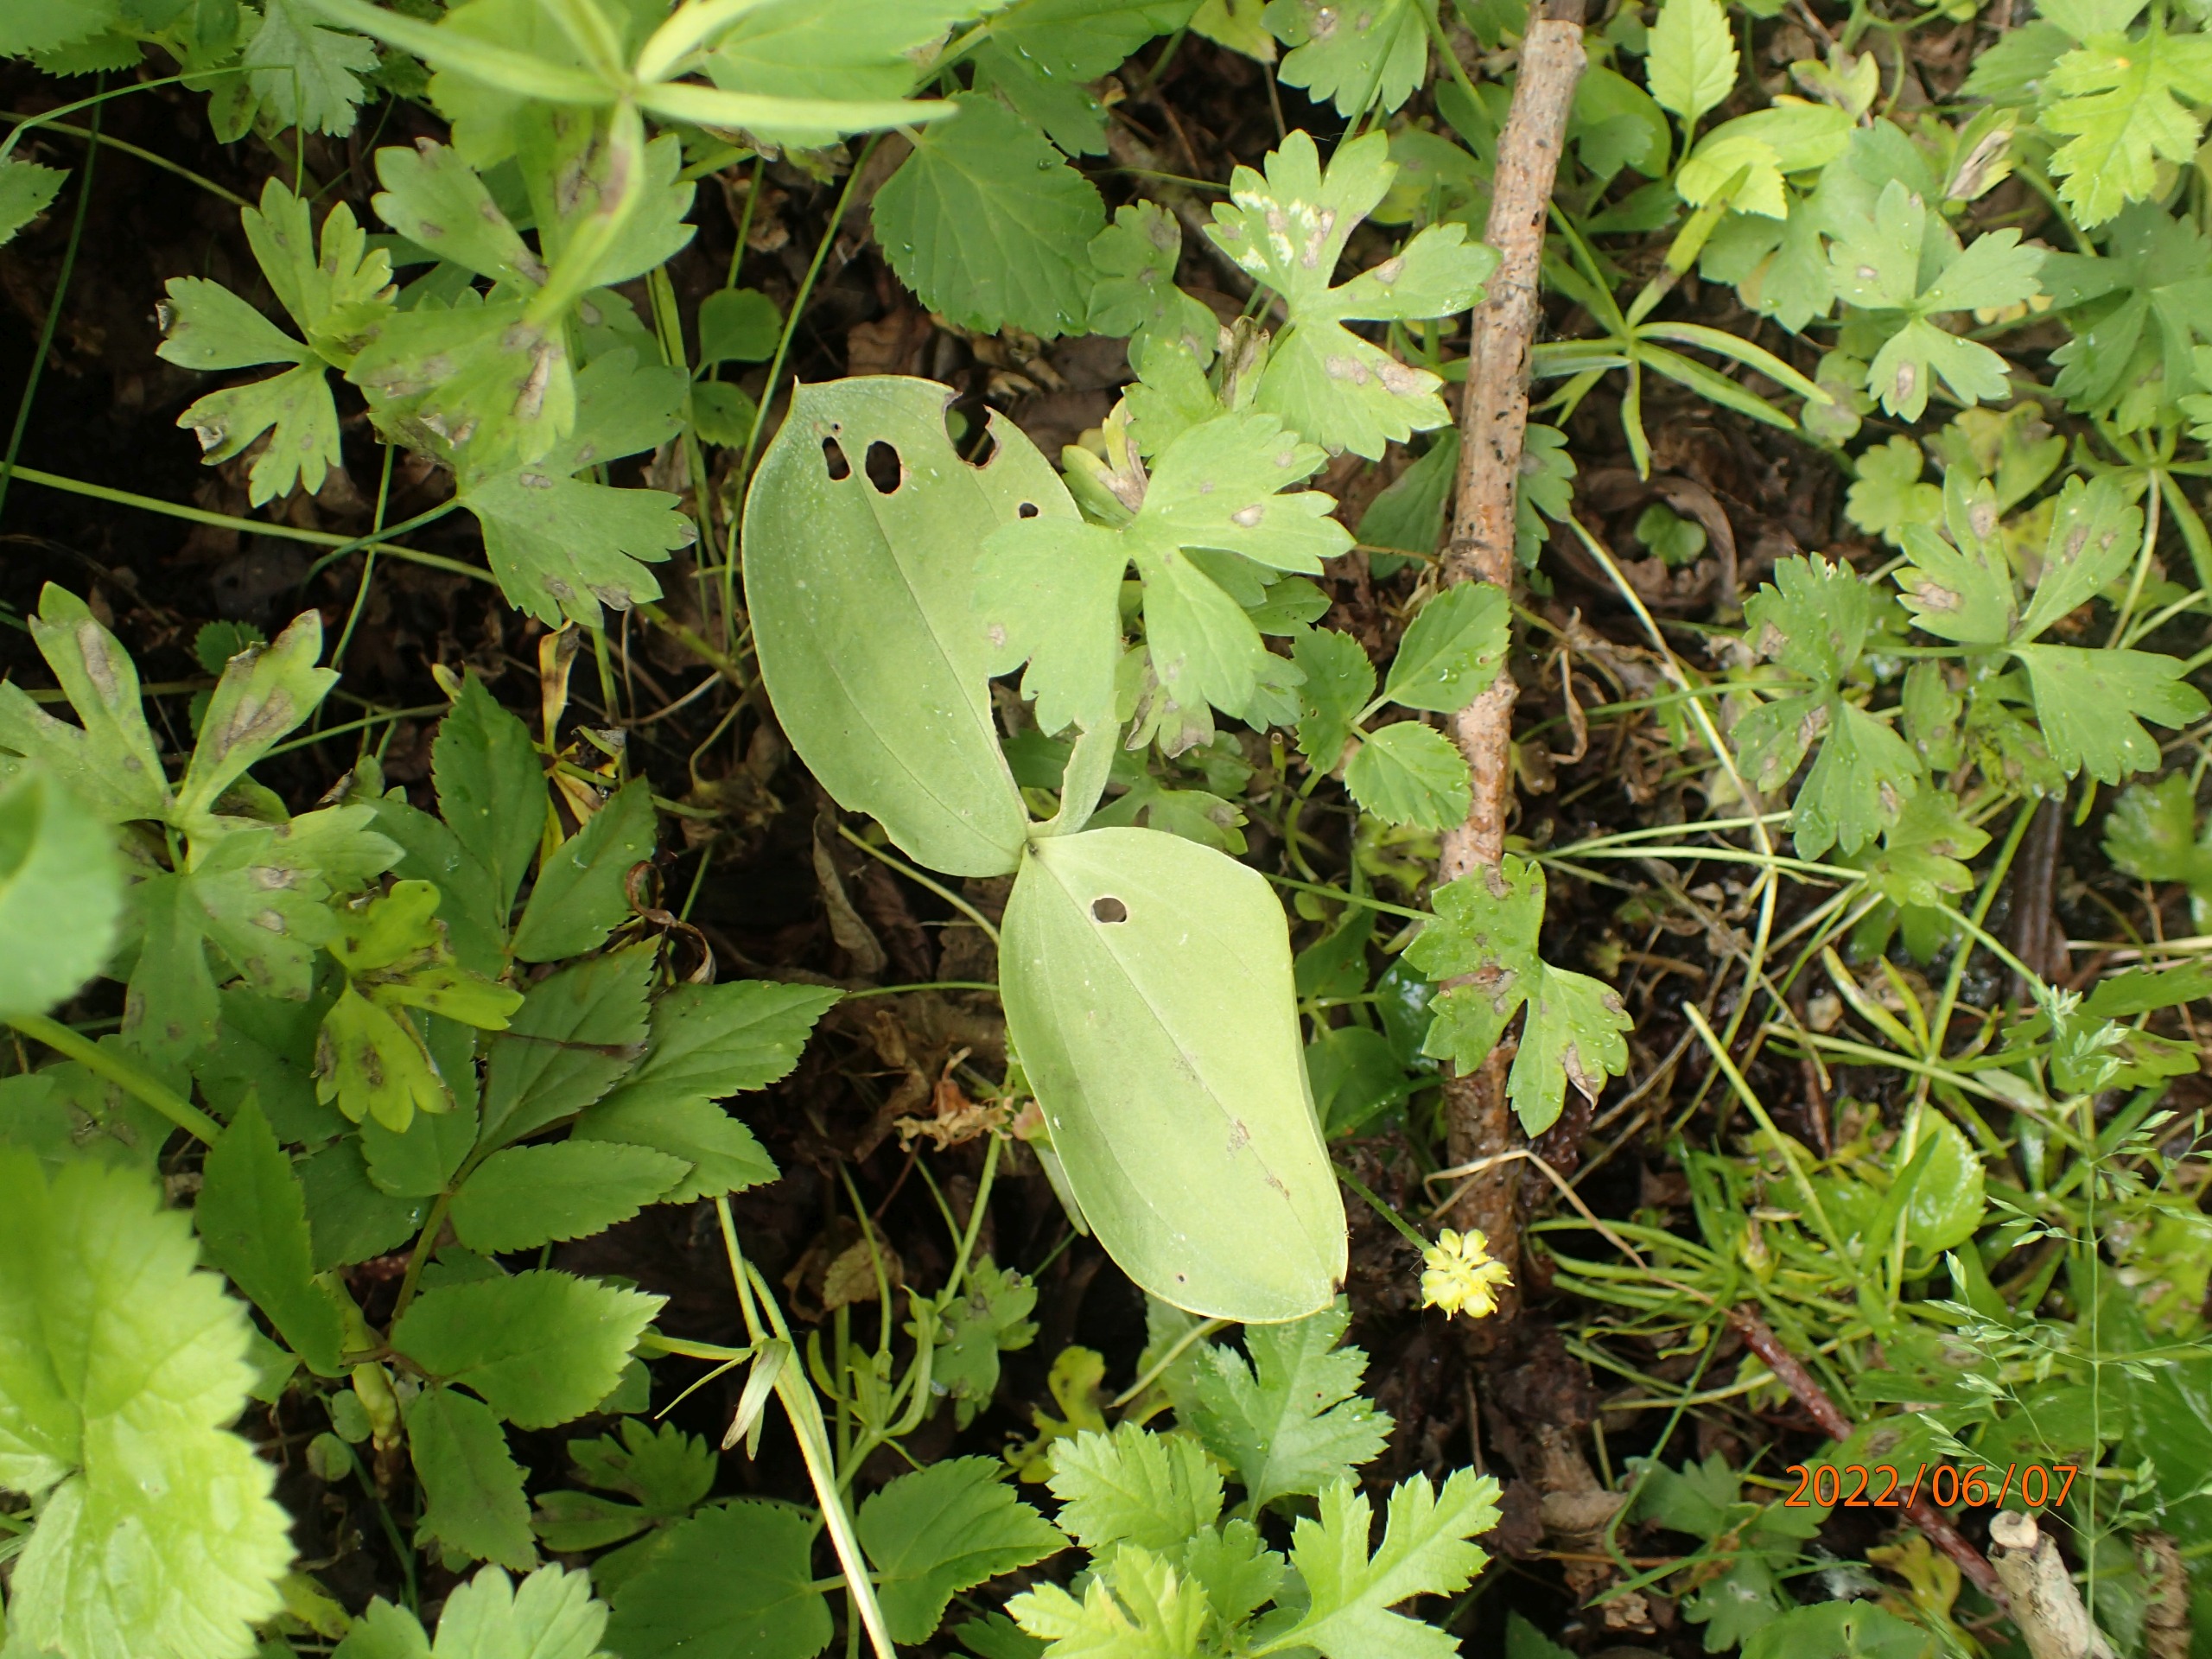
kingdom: Plantae
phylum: Tracheophyta
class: Liliopsida
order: Asparagales
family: Orchidaceae
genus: Neottia
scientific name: Neottia ovata
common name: Ægbladet fliglæbe
